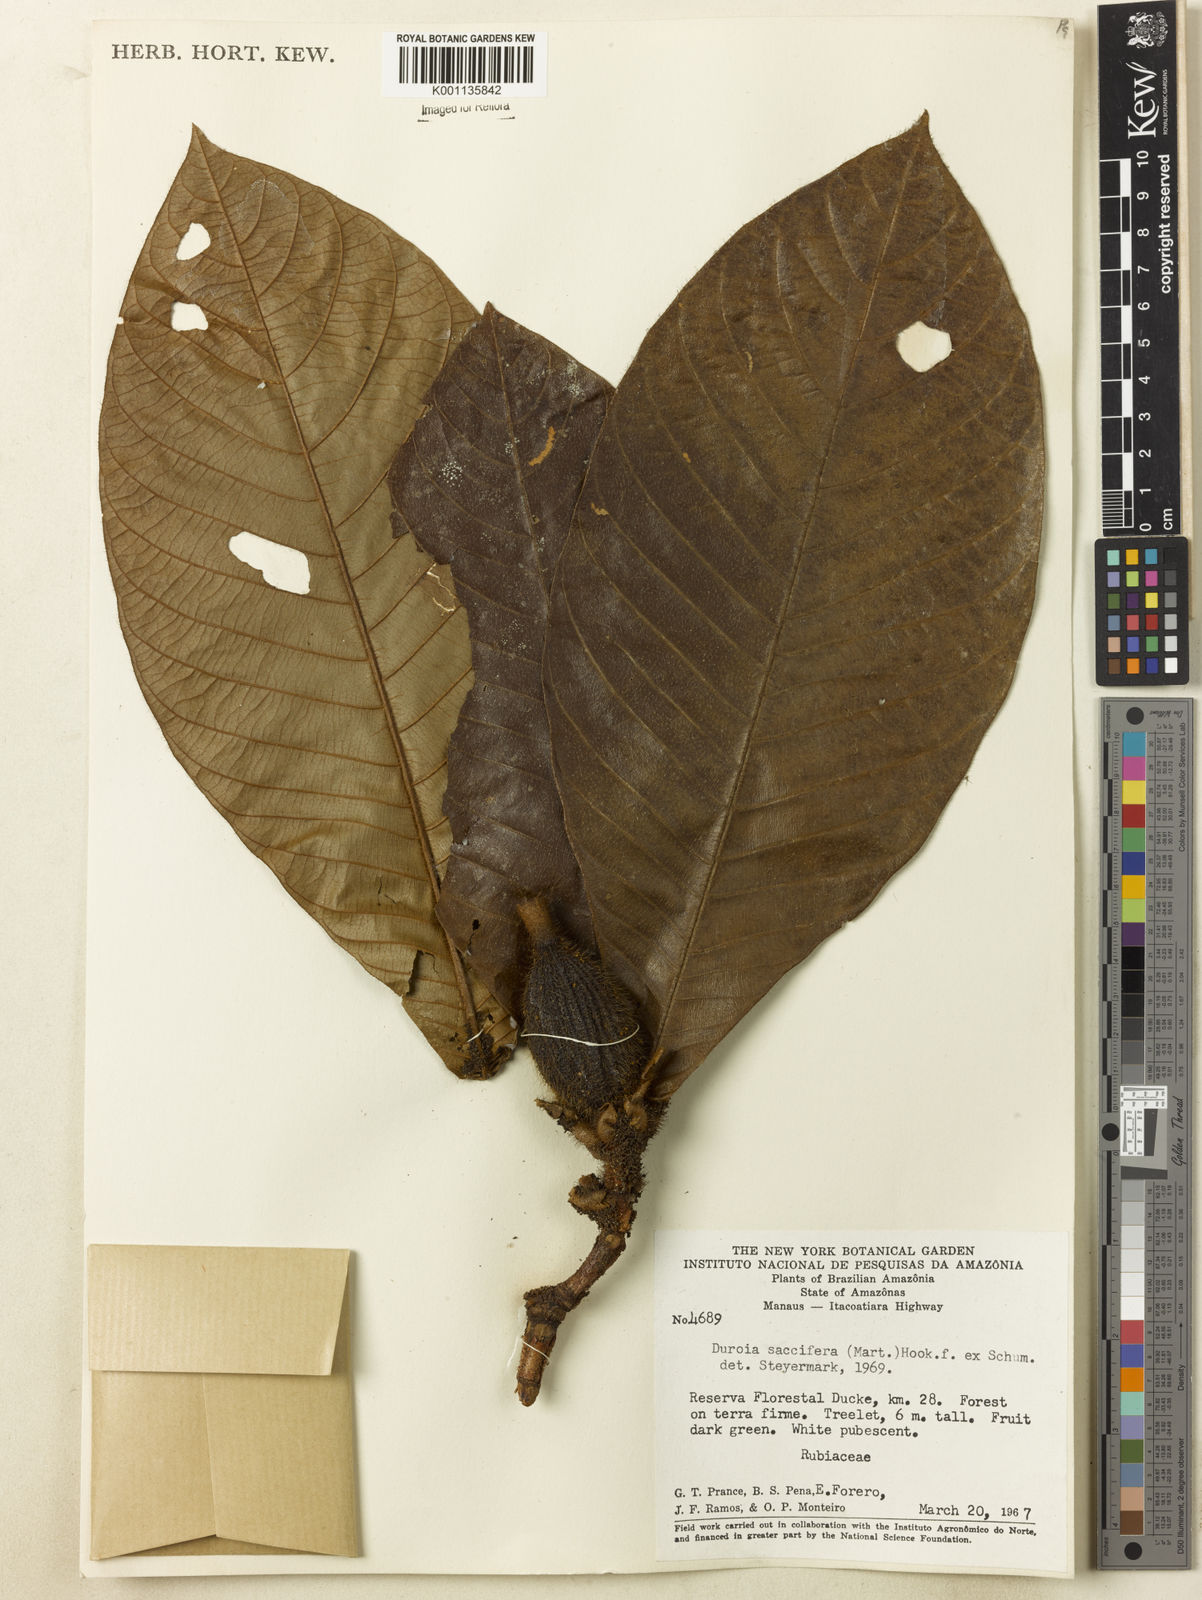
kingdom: Plantae
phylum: Tracheophyta
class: Magnoliopsida
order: Gentianales
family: Rubiaceae
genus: Duroia
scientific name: Duroia saccifera
